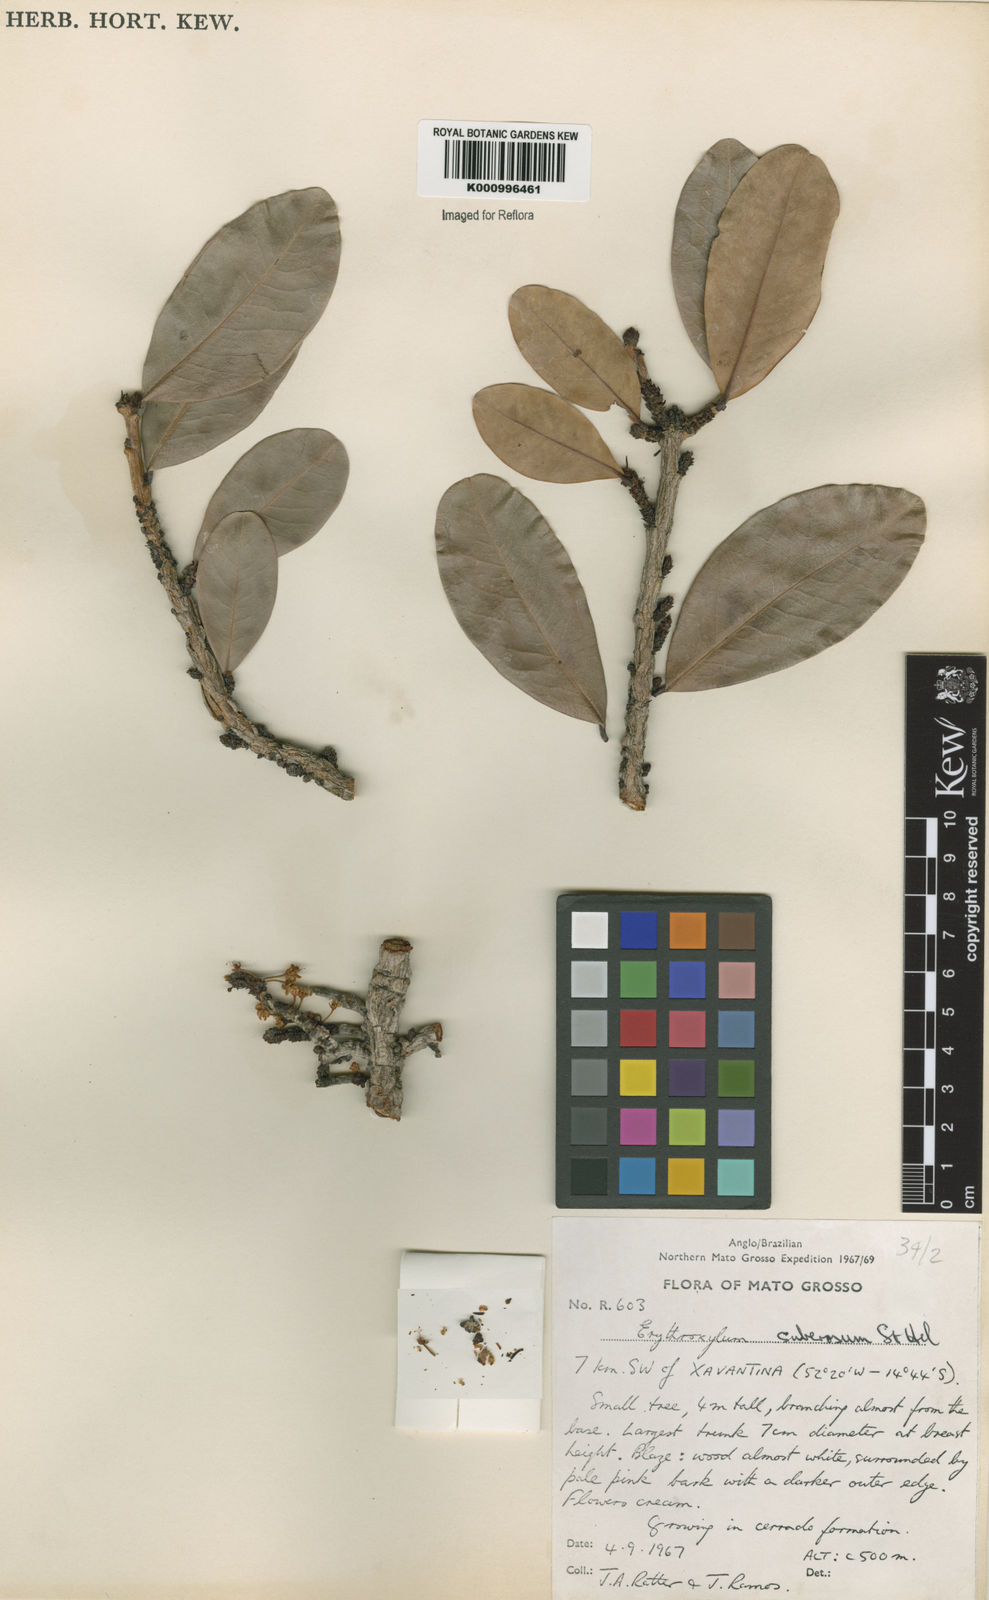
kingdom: Plantae
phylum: Tracheophyta
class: Magnoliopsida
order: Malpighiales
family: Erythroxylaceae
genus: Erythroxylum
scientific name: Erythroxylum suberosum
